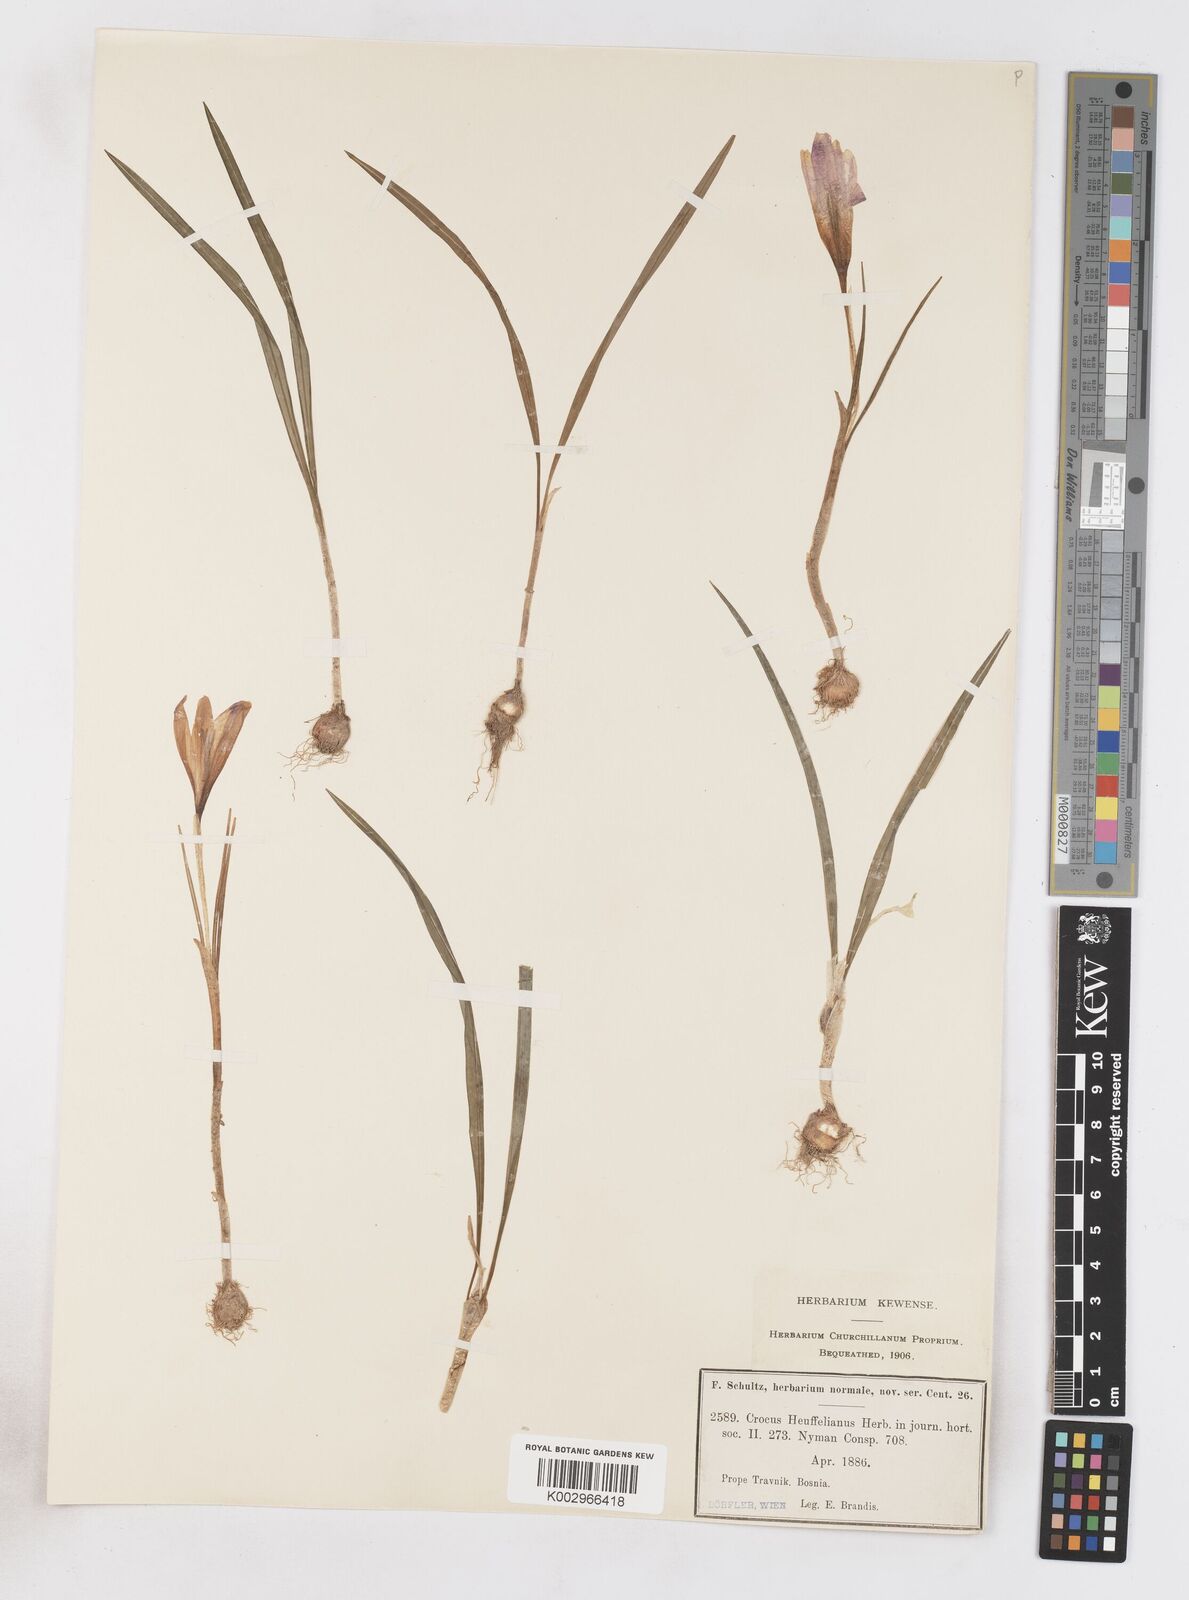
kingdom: Plantae
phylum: Tracheophyta
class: Liliopsida
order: Asparagales
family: Iridaceae
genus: Crocus
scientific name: Crocus vernus
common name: Spring crocus
